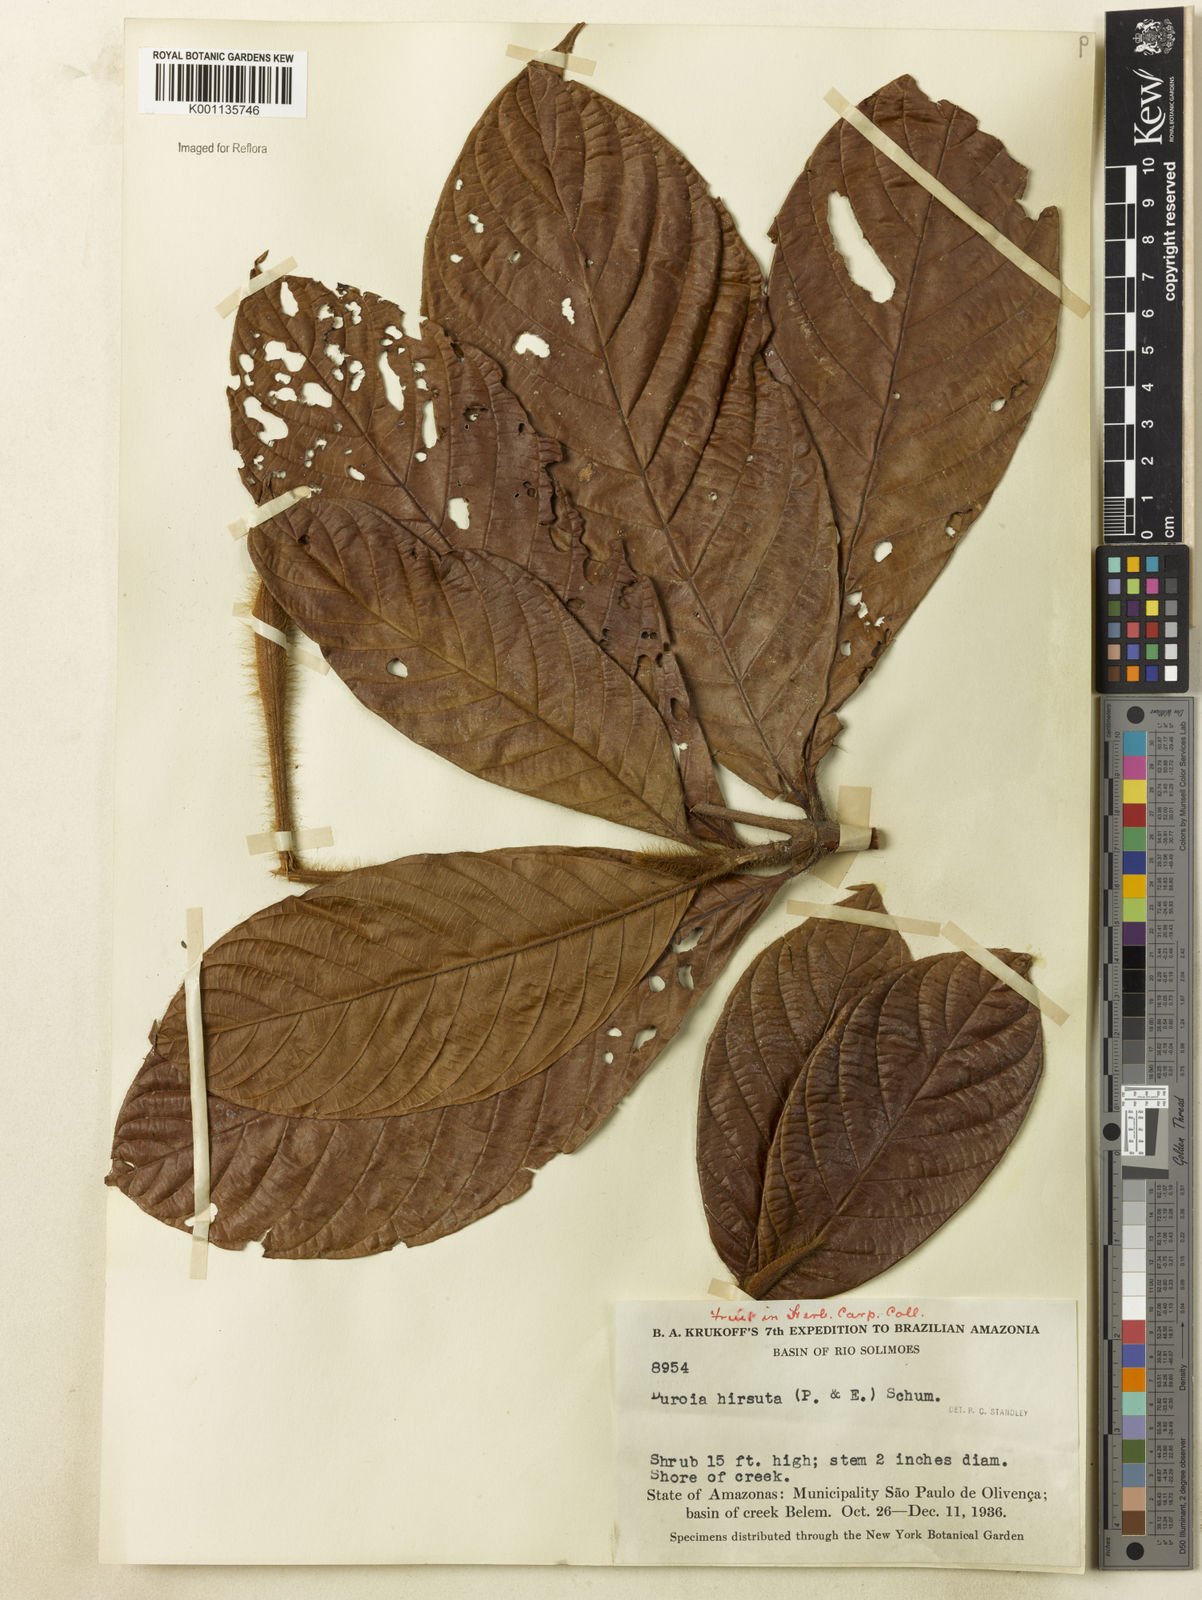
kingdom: Plantae
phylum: Tracheophyta
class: Magnoliopsida
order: Gentianales
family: Rubiaceae
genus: Duroia
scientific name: Duroia hirsuta
